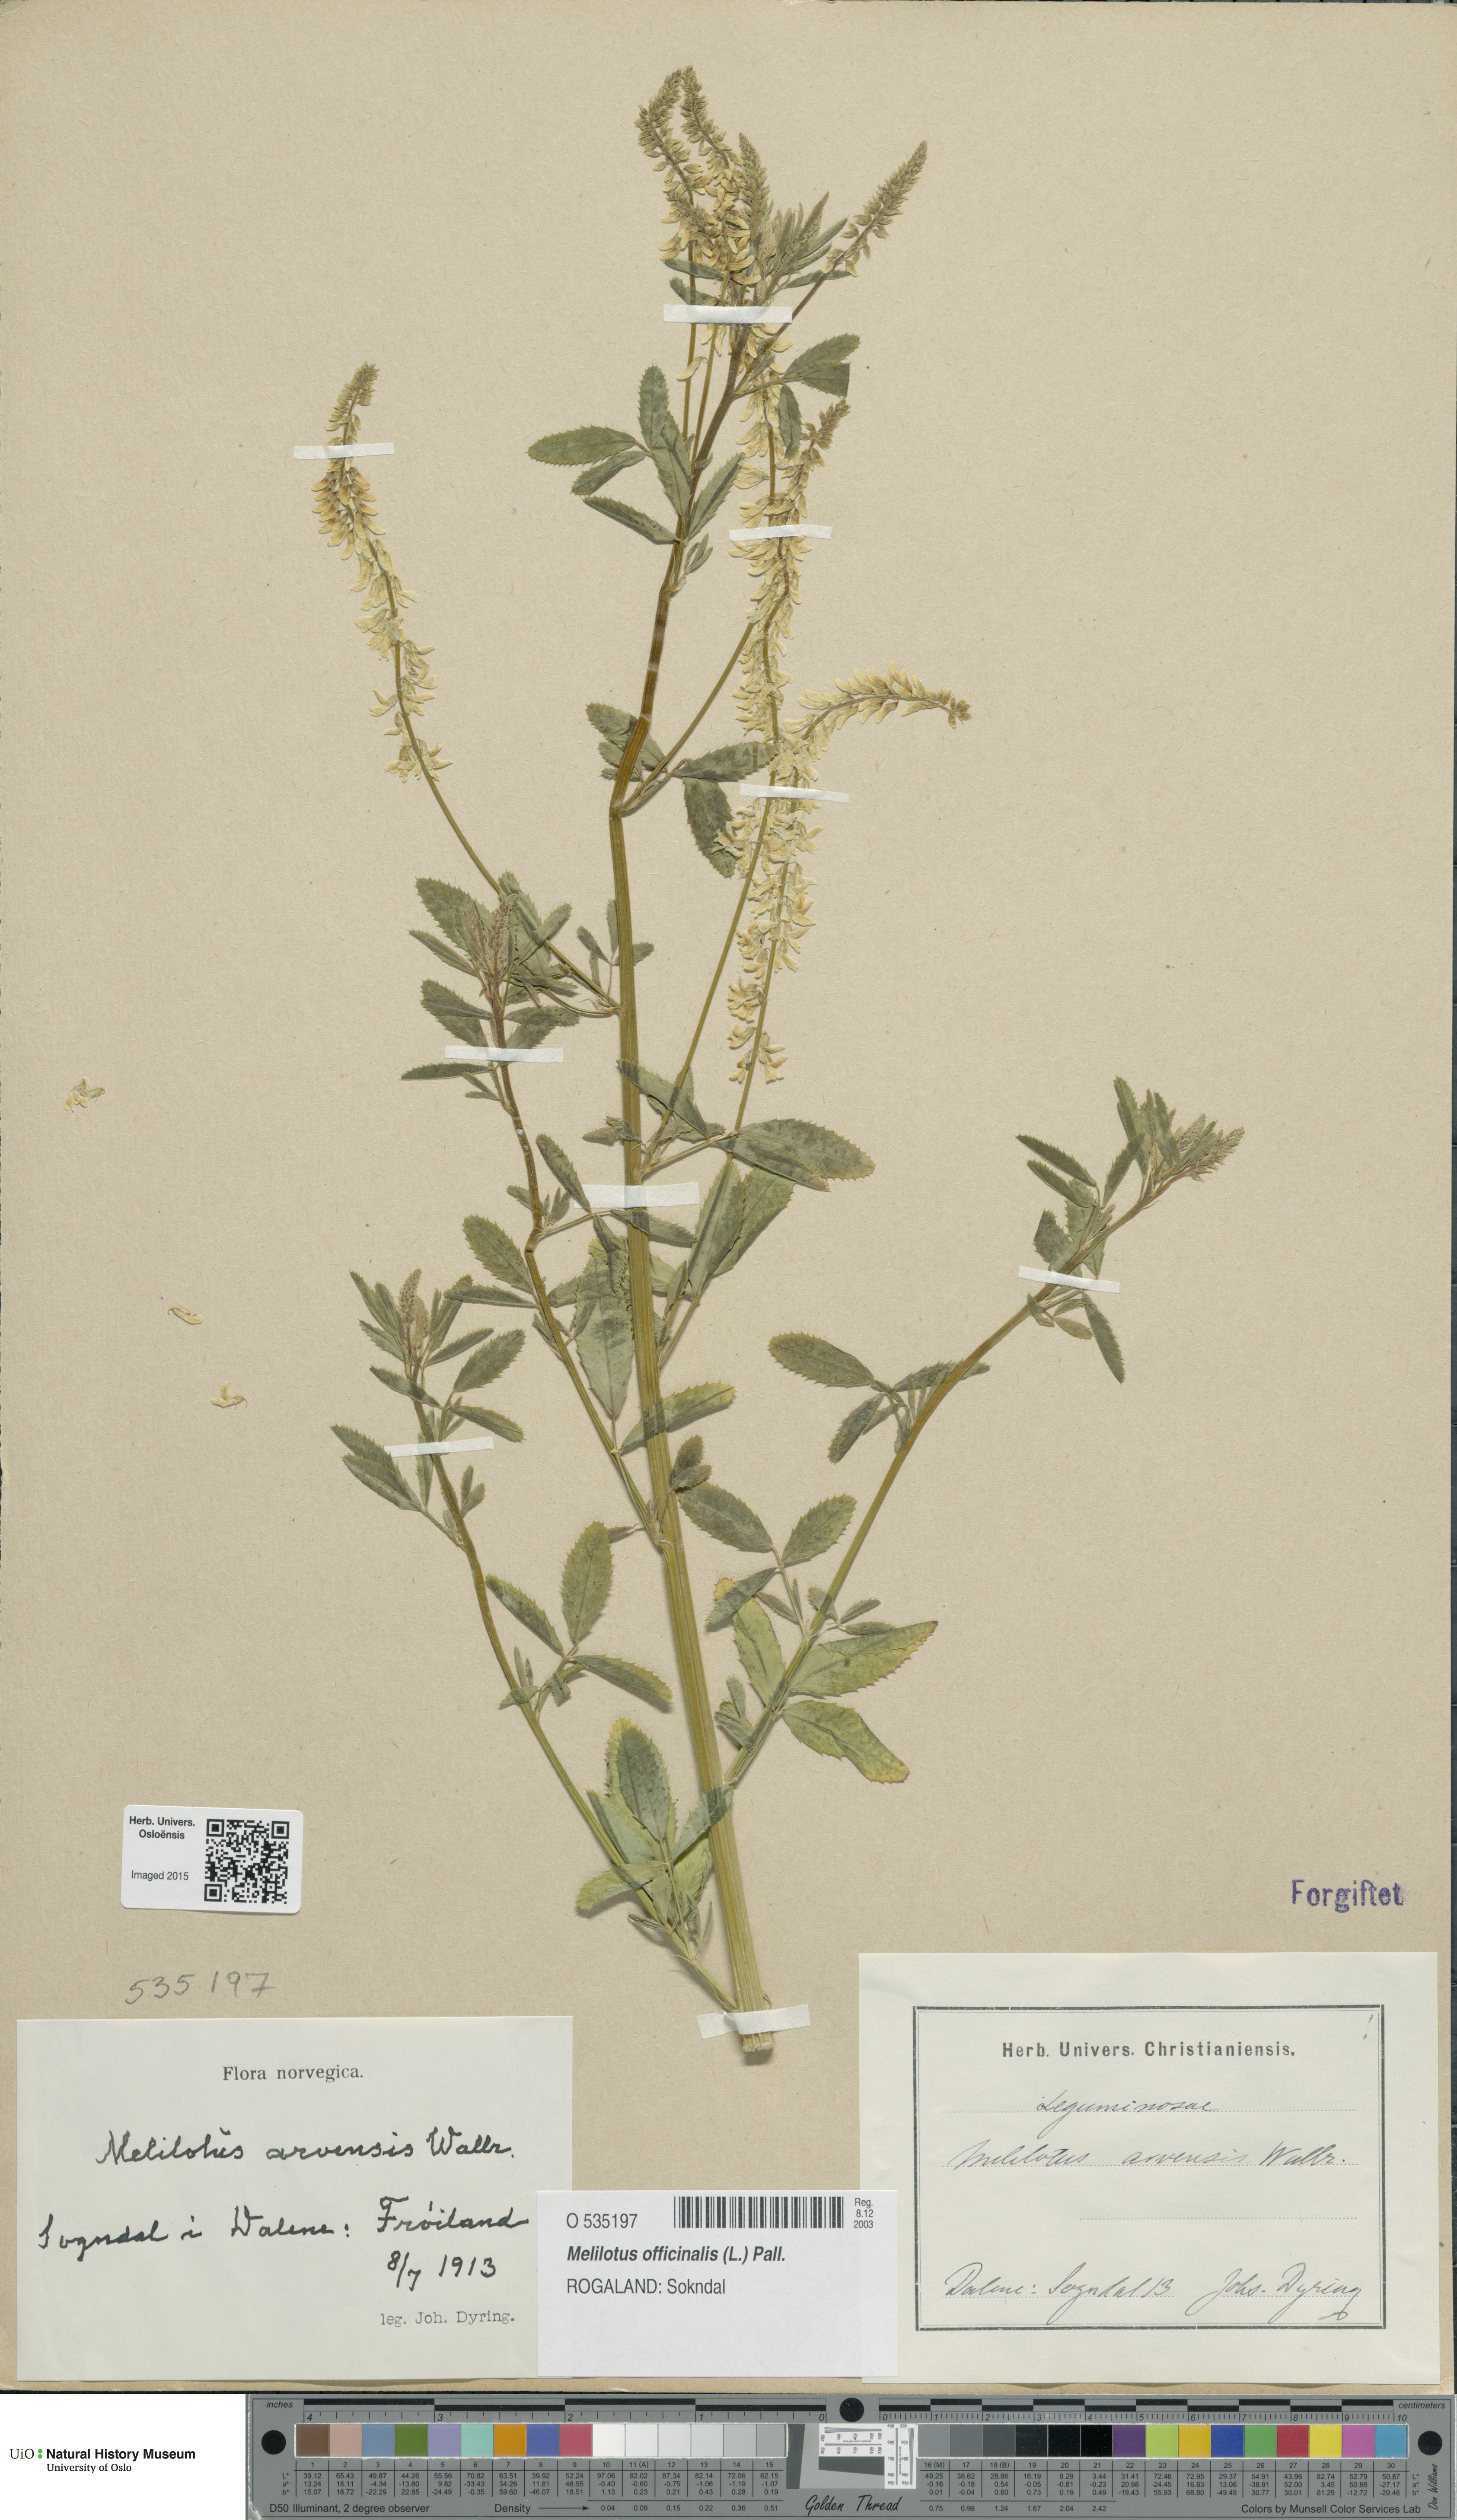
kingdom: Plantae
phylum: Tracheophyta
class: Magnoliopsida
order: Fabales
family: Fabaceae
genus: Melilotus
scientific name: Melilotus officinalis
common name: Sweetclover
